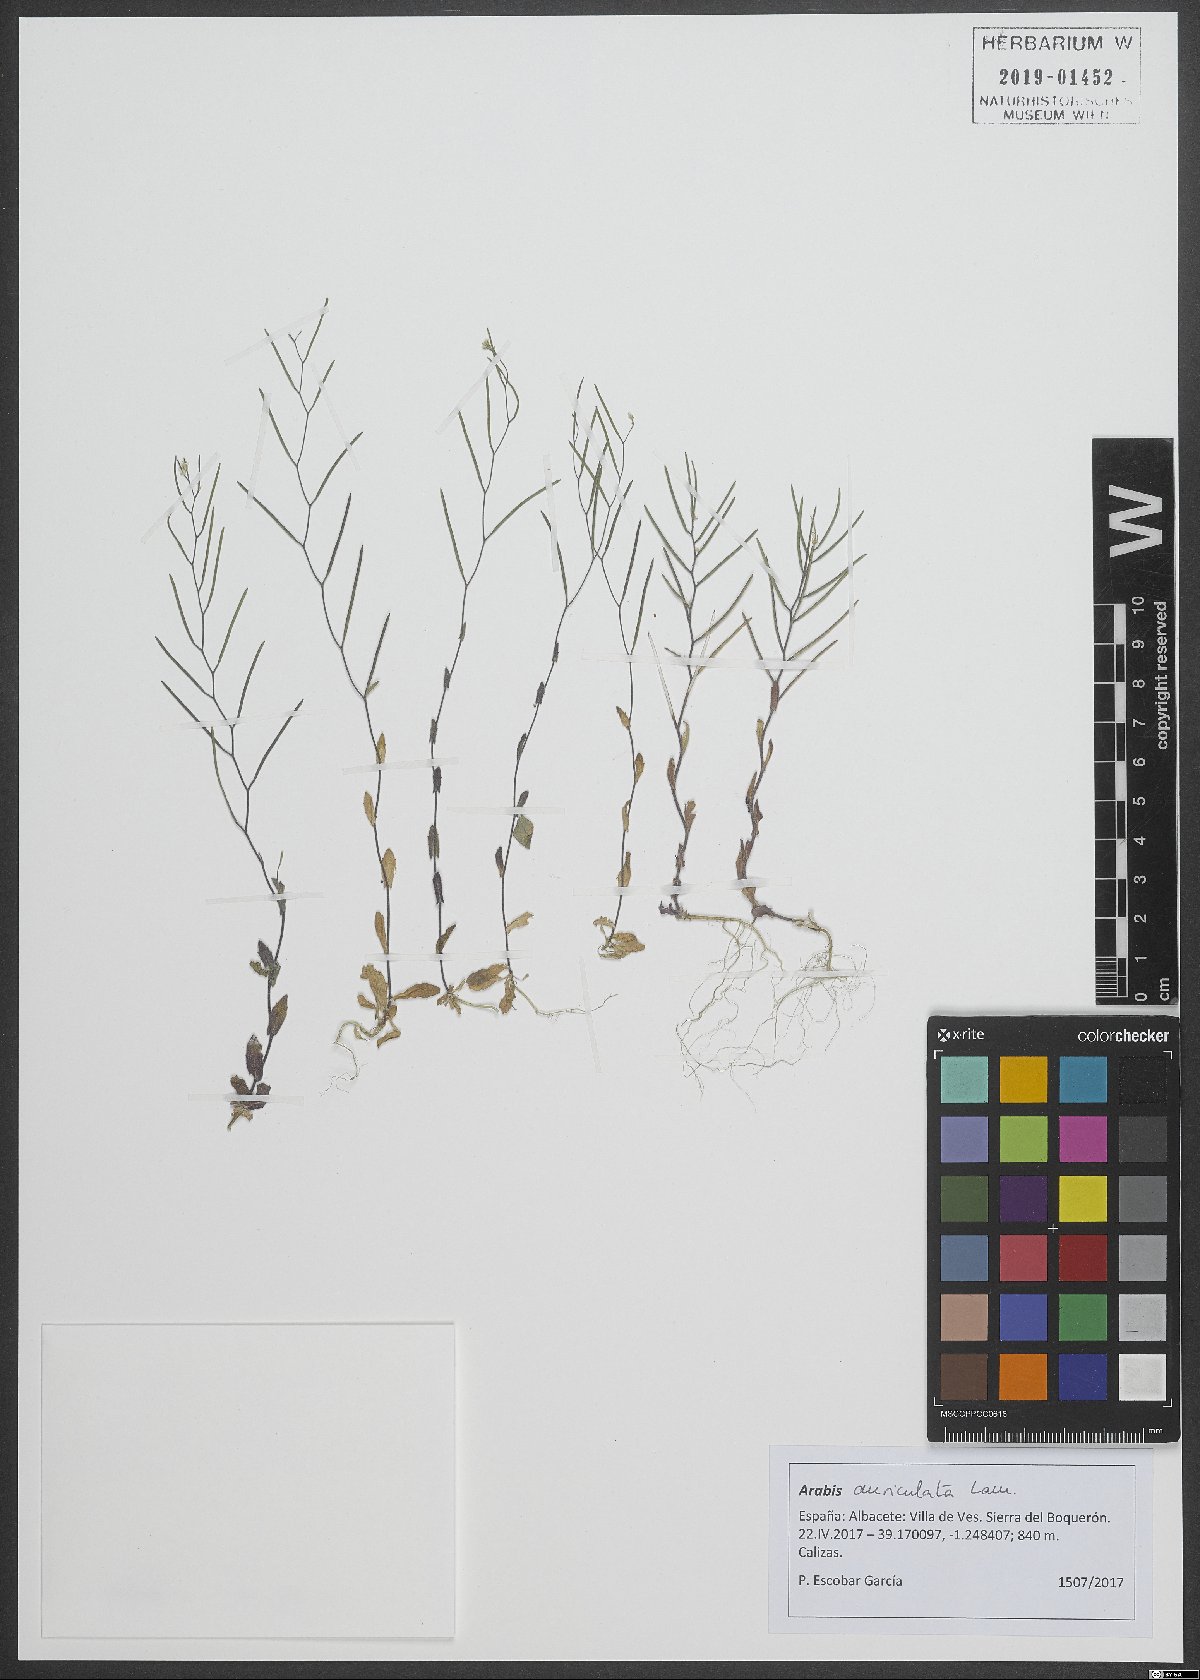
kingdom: Plantae
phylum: Tracheophyta
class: Magnoliopsida
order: Brassicales
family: Brassicaceae
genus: Arabis
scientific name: Arabis auriculata
